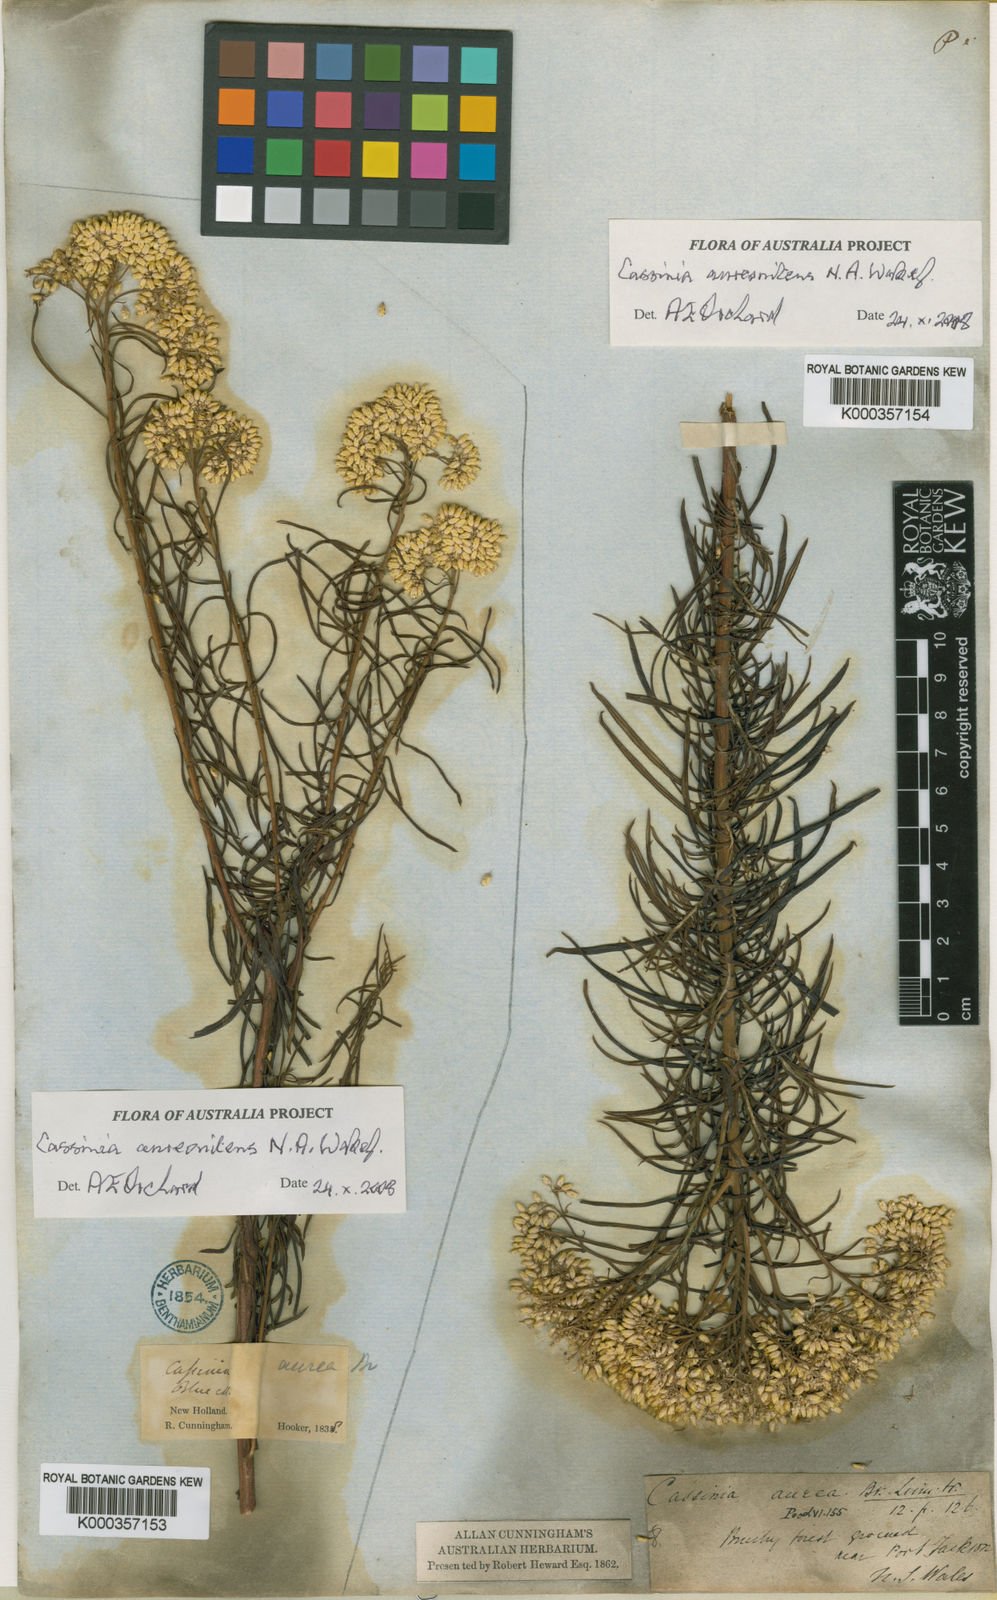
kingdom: Plantae
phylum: Tracheophyta
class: Magnoliopsida
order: Asterales
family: Asteraceae
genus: Cassinia
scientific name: Cassinia aureonitens
